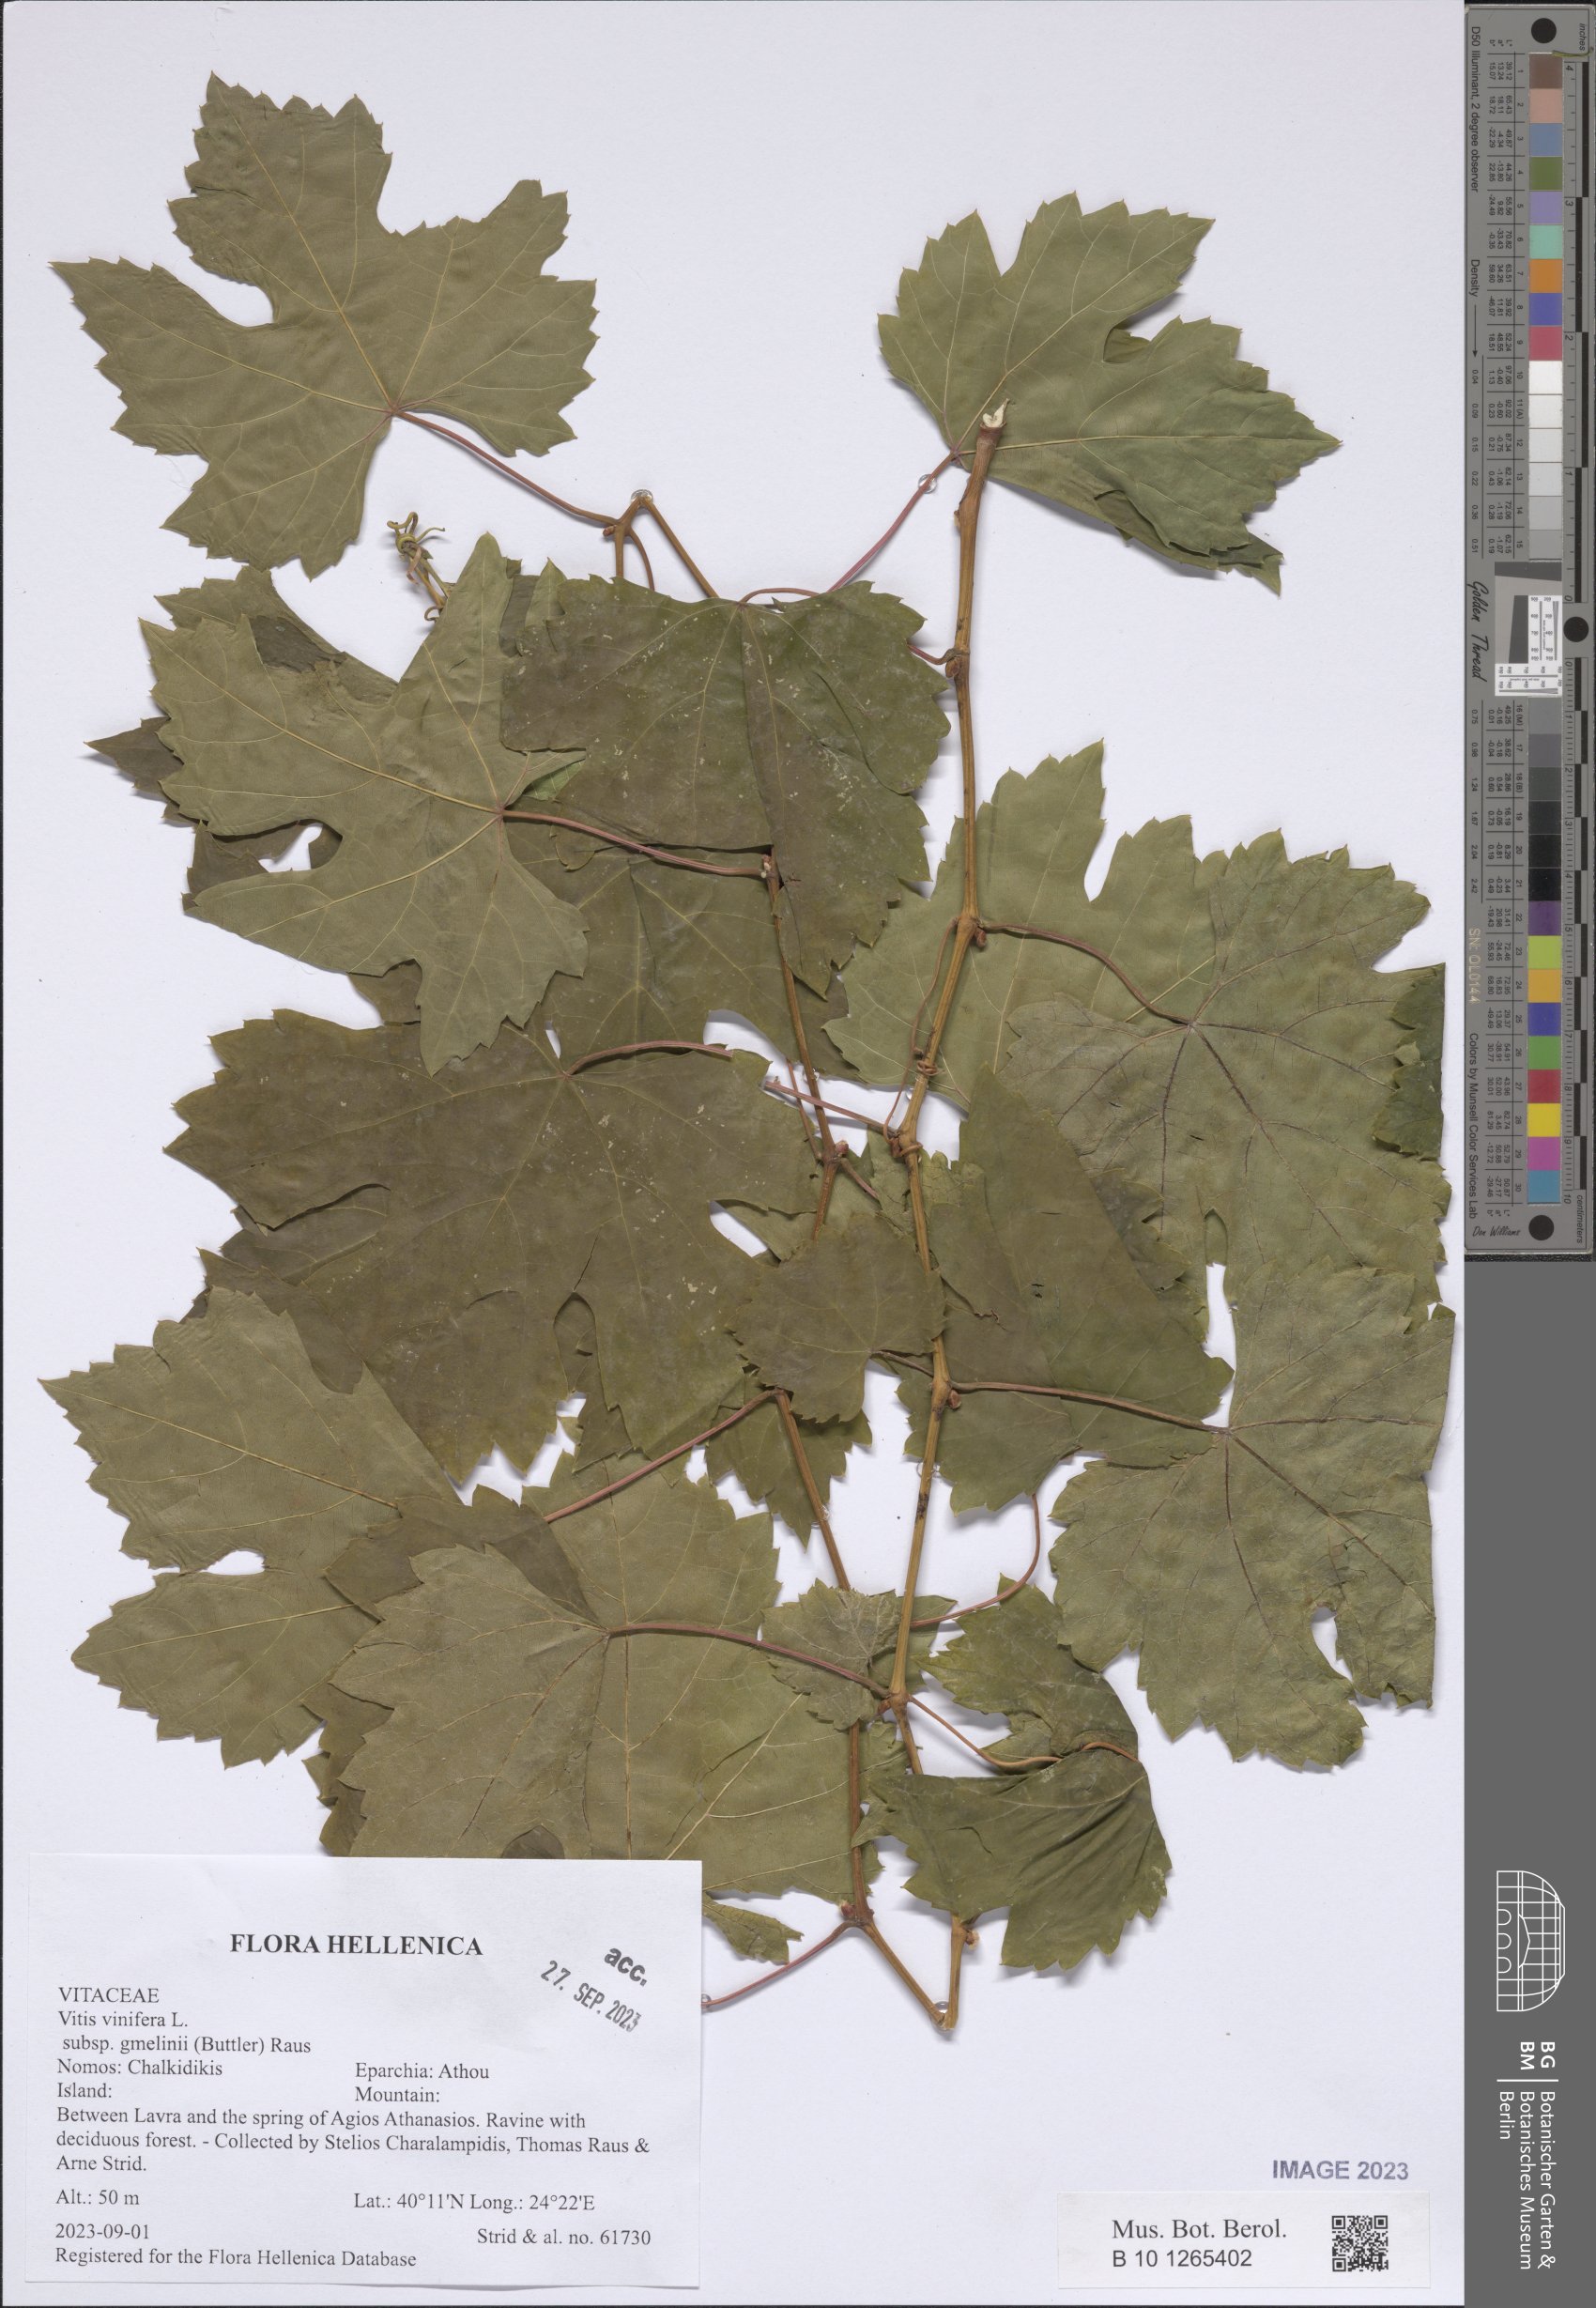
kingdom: Plantae
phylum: Tracheophyta
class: Magnoliopsida
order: Vitales
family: Vitaceae
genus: Vitis
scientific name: Vitis vinifera
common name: Grape-vine
